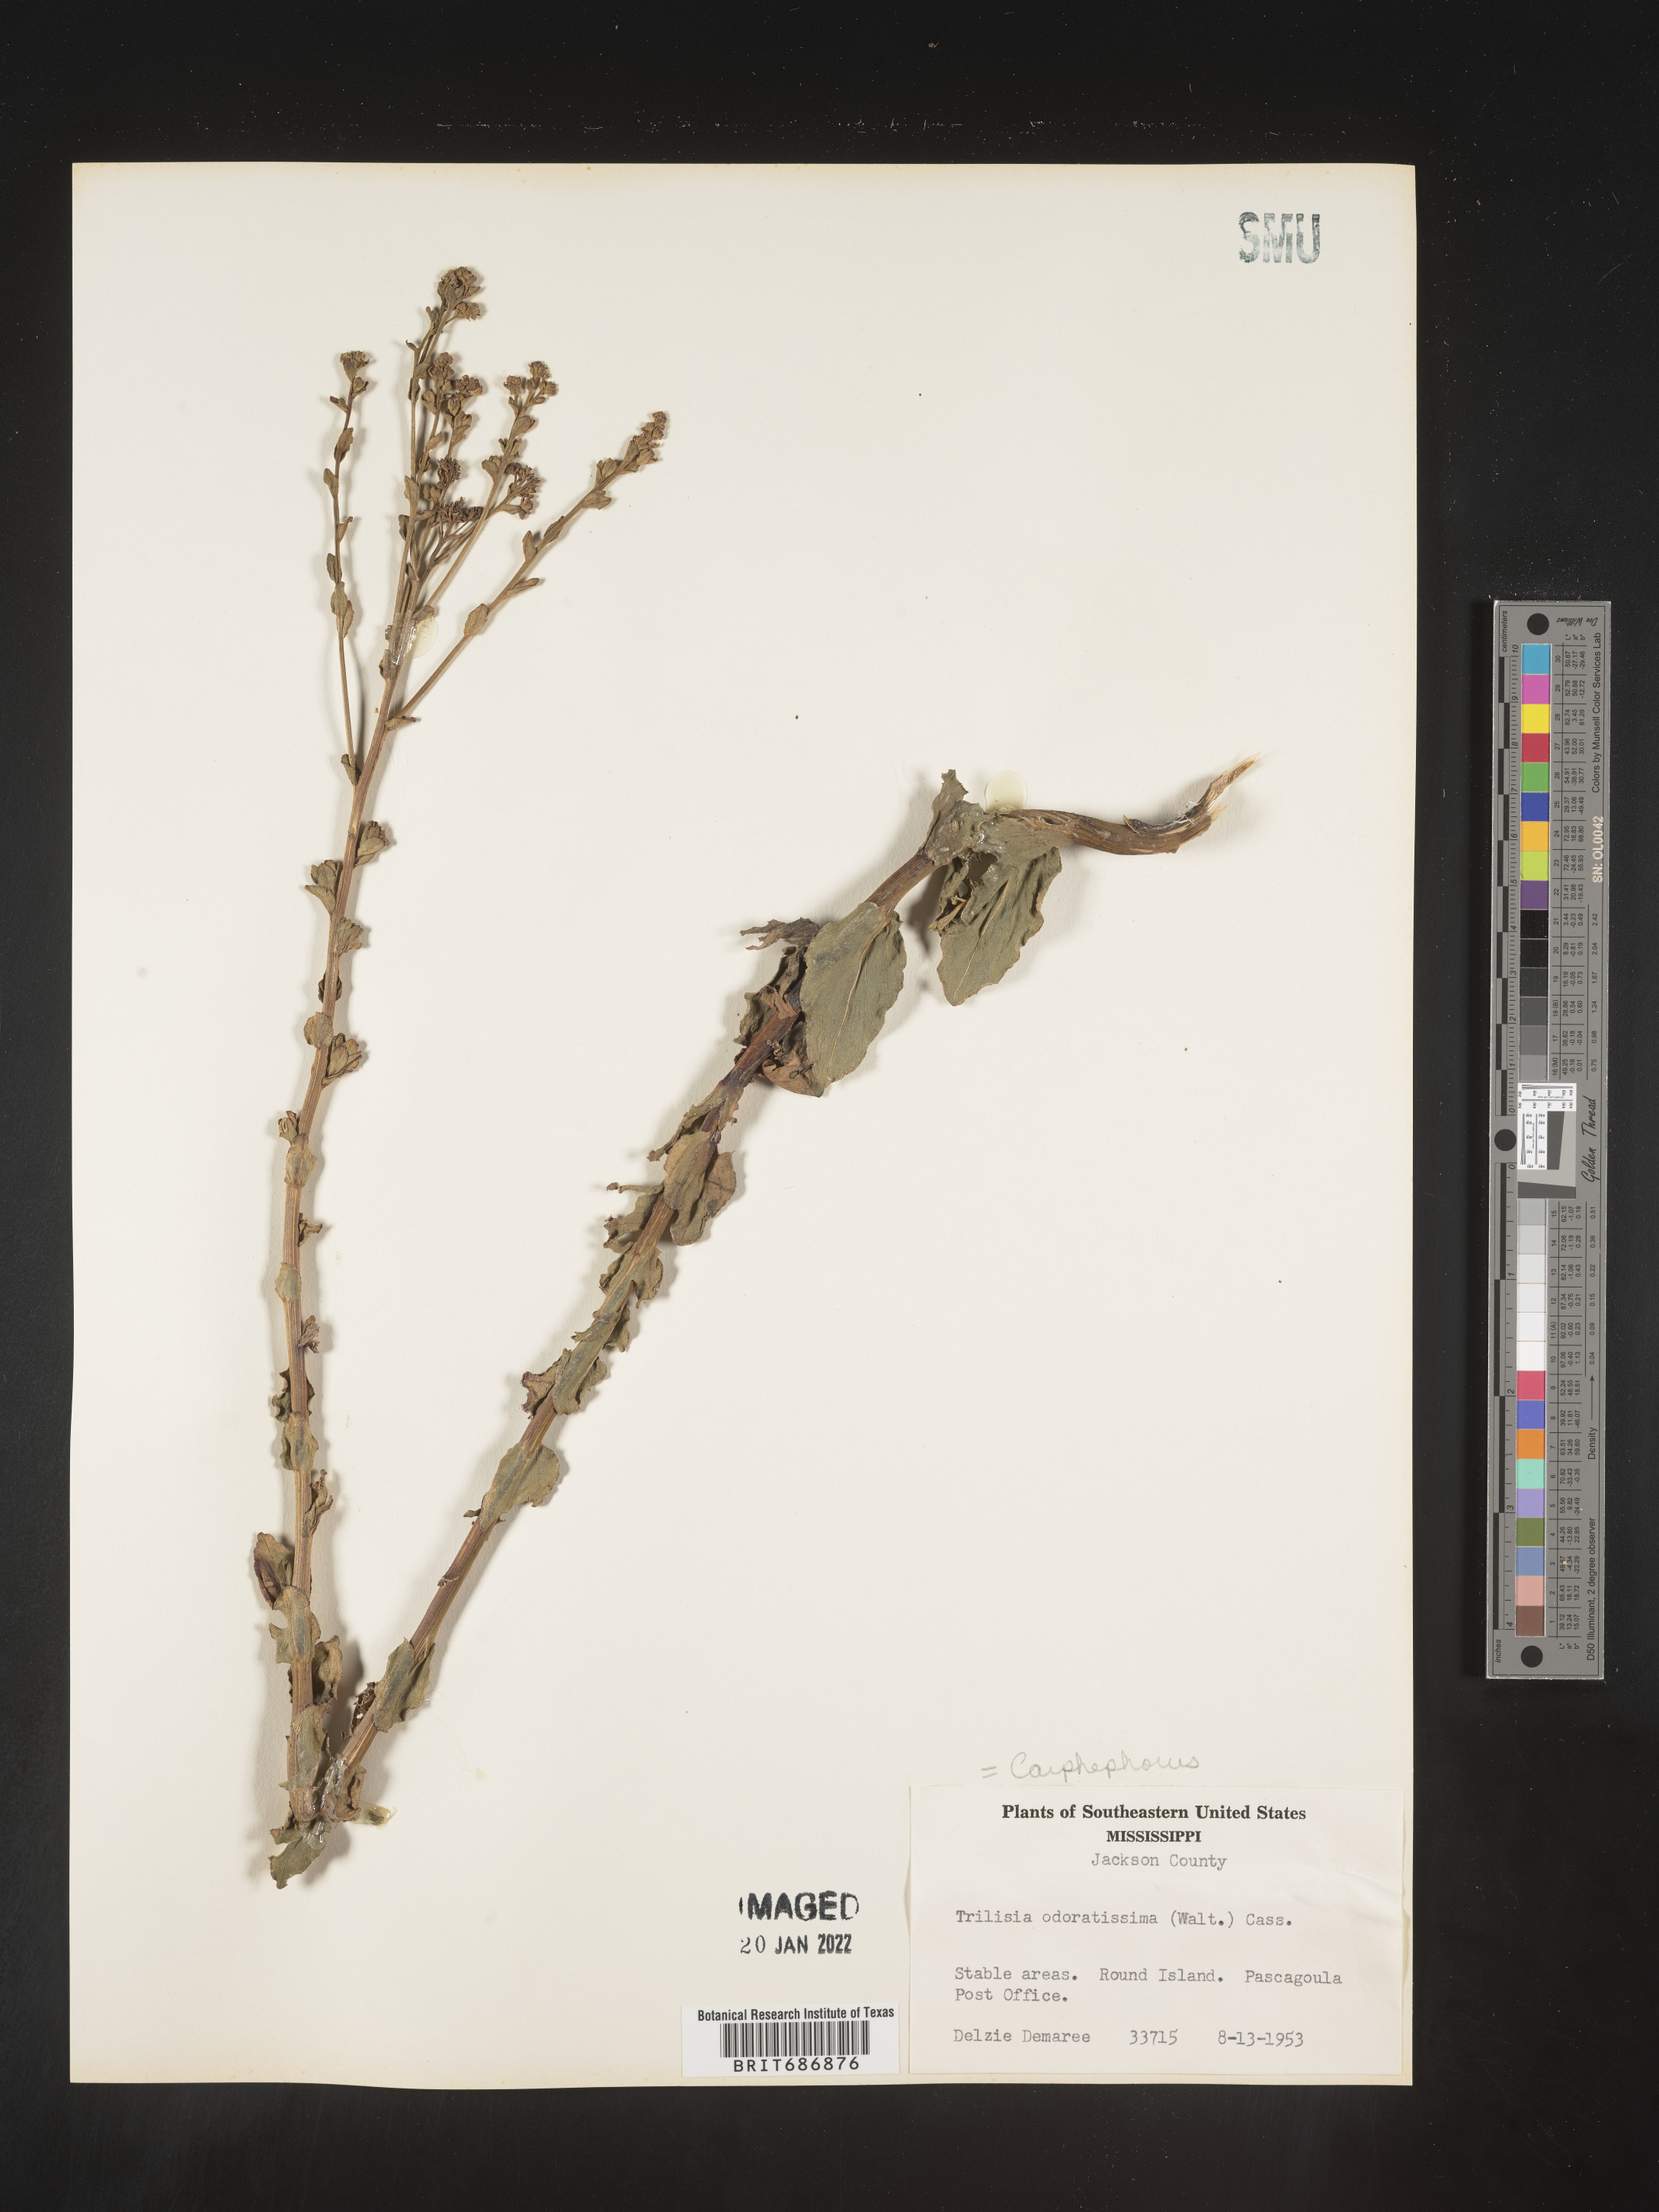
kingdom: Plantae
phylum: Tracheophyta
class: Magnoliopsida
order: Asterales
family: Asteraceae
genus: Carphephorus
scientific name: Carphephorus odoratissimus
